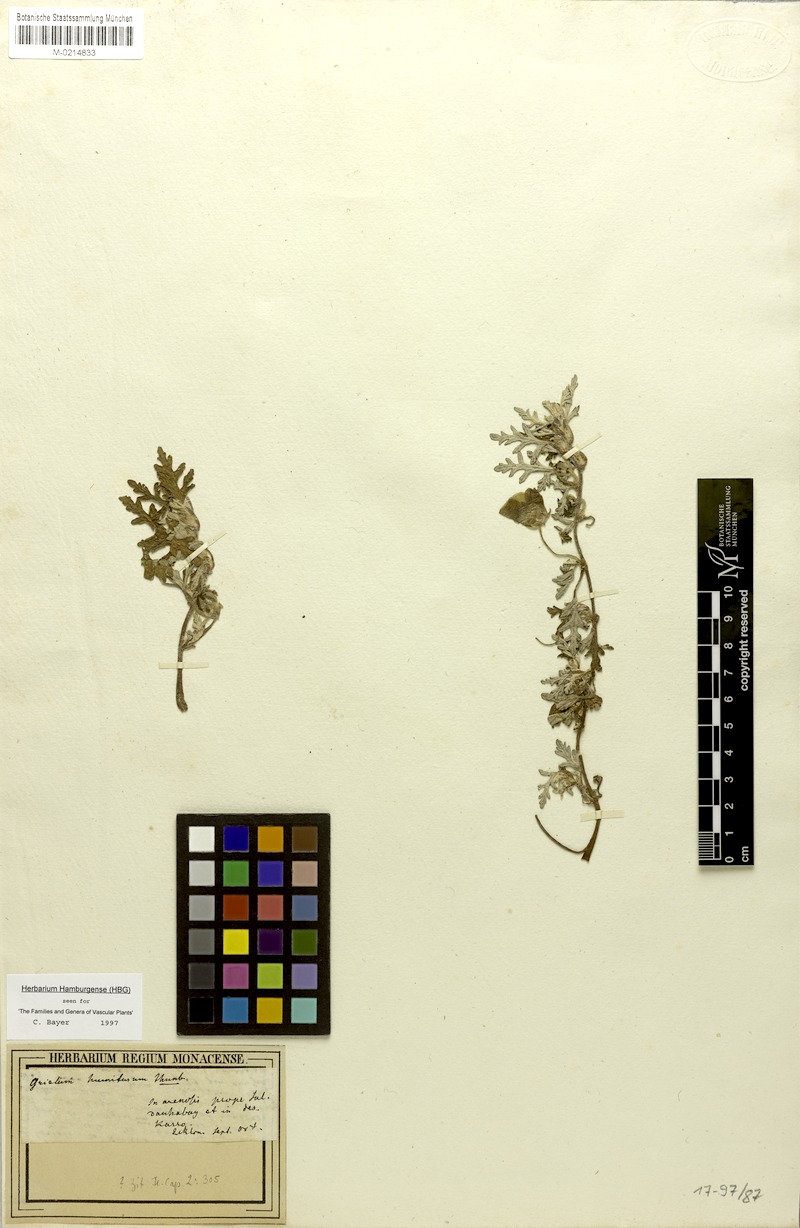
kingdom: Plantae
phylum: Tracheophyta
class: Magnoliopsida
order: Malvales
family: Neuradaceae
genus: Grielum
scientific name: Grielum humifusum
